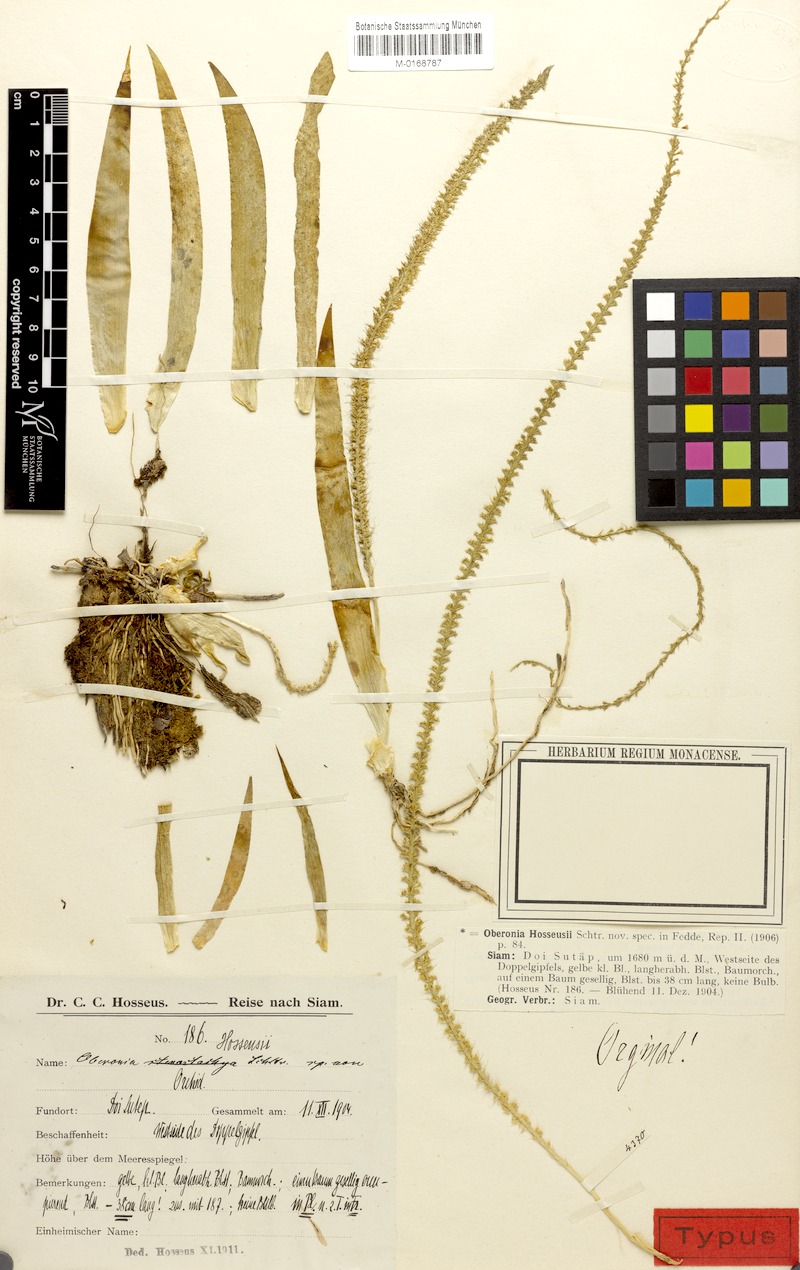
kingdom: Plantae
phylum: Tracheophyta
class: Liliopsida
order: Asparagales
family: Orchidaceae
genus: Oberonia
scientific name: Oberonia hosseusii
